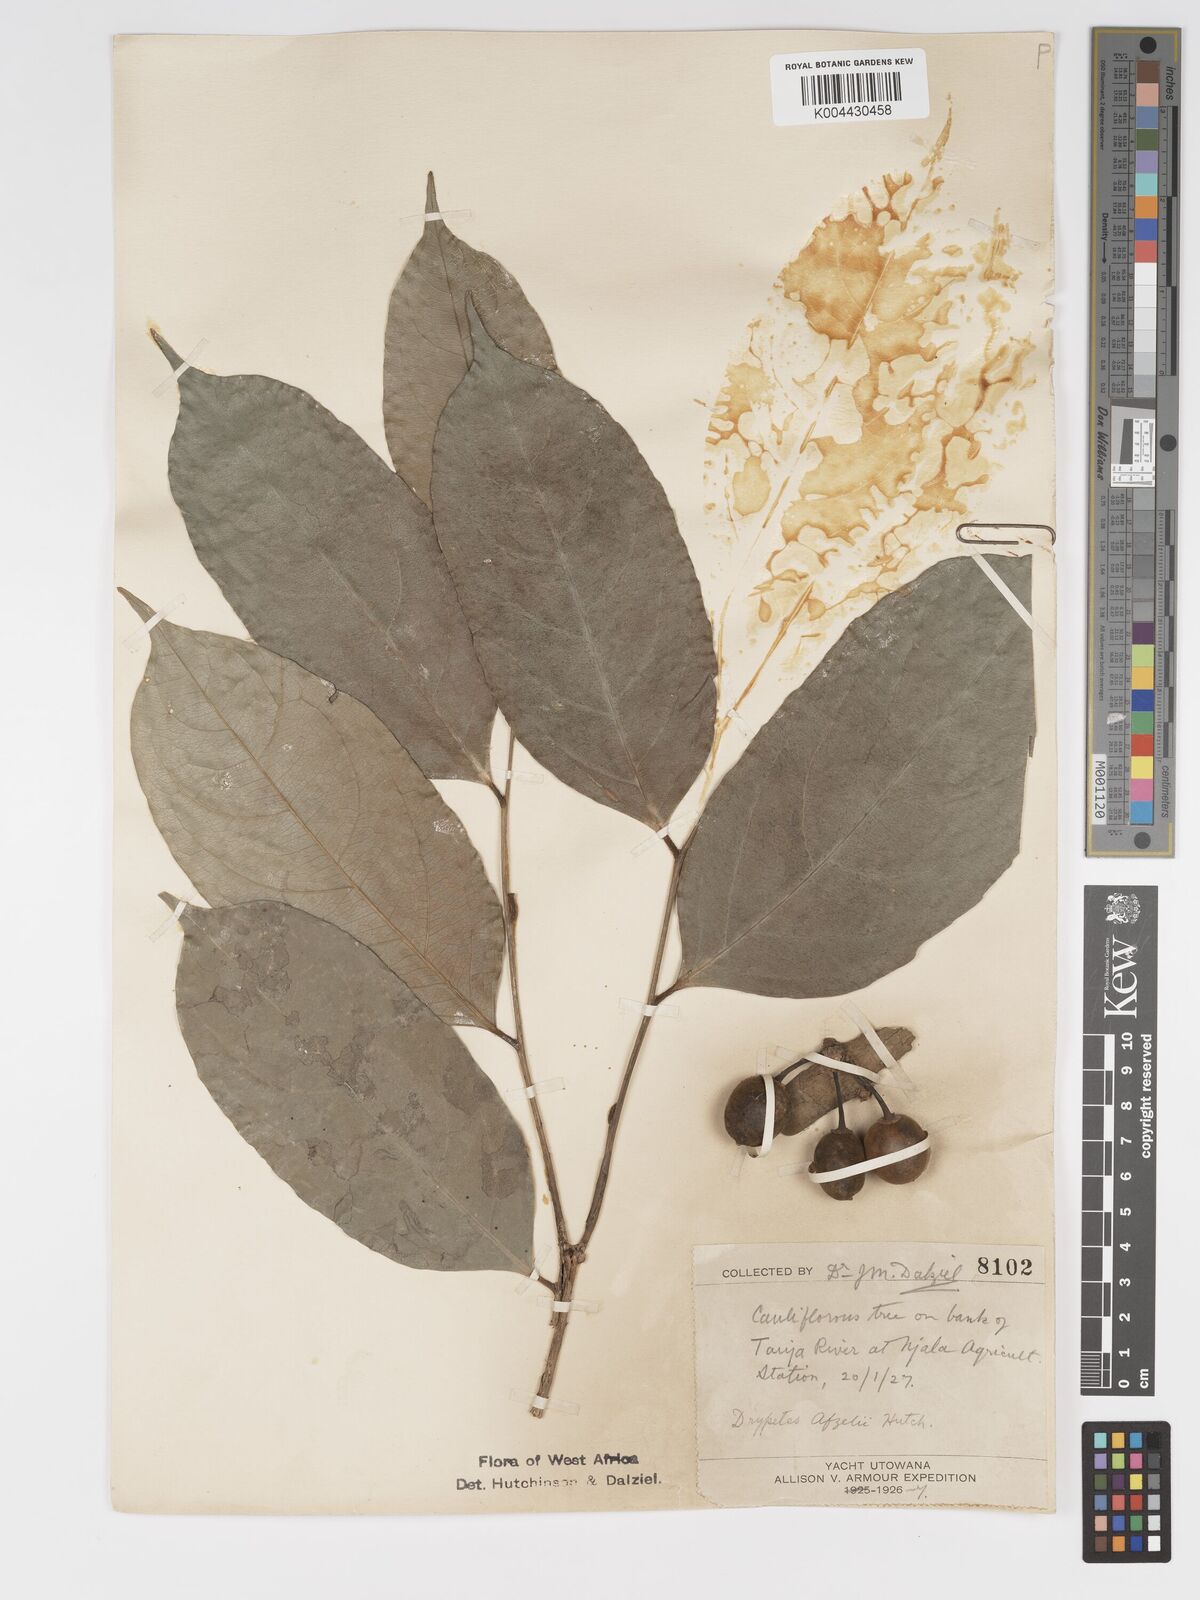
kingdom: Plantae
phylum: Tracheophyta
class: Magnoliopsida
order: Malpighiales
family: Putranjivaceae
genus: Drypetes
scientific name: Drypetes afzelii
